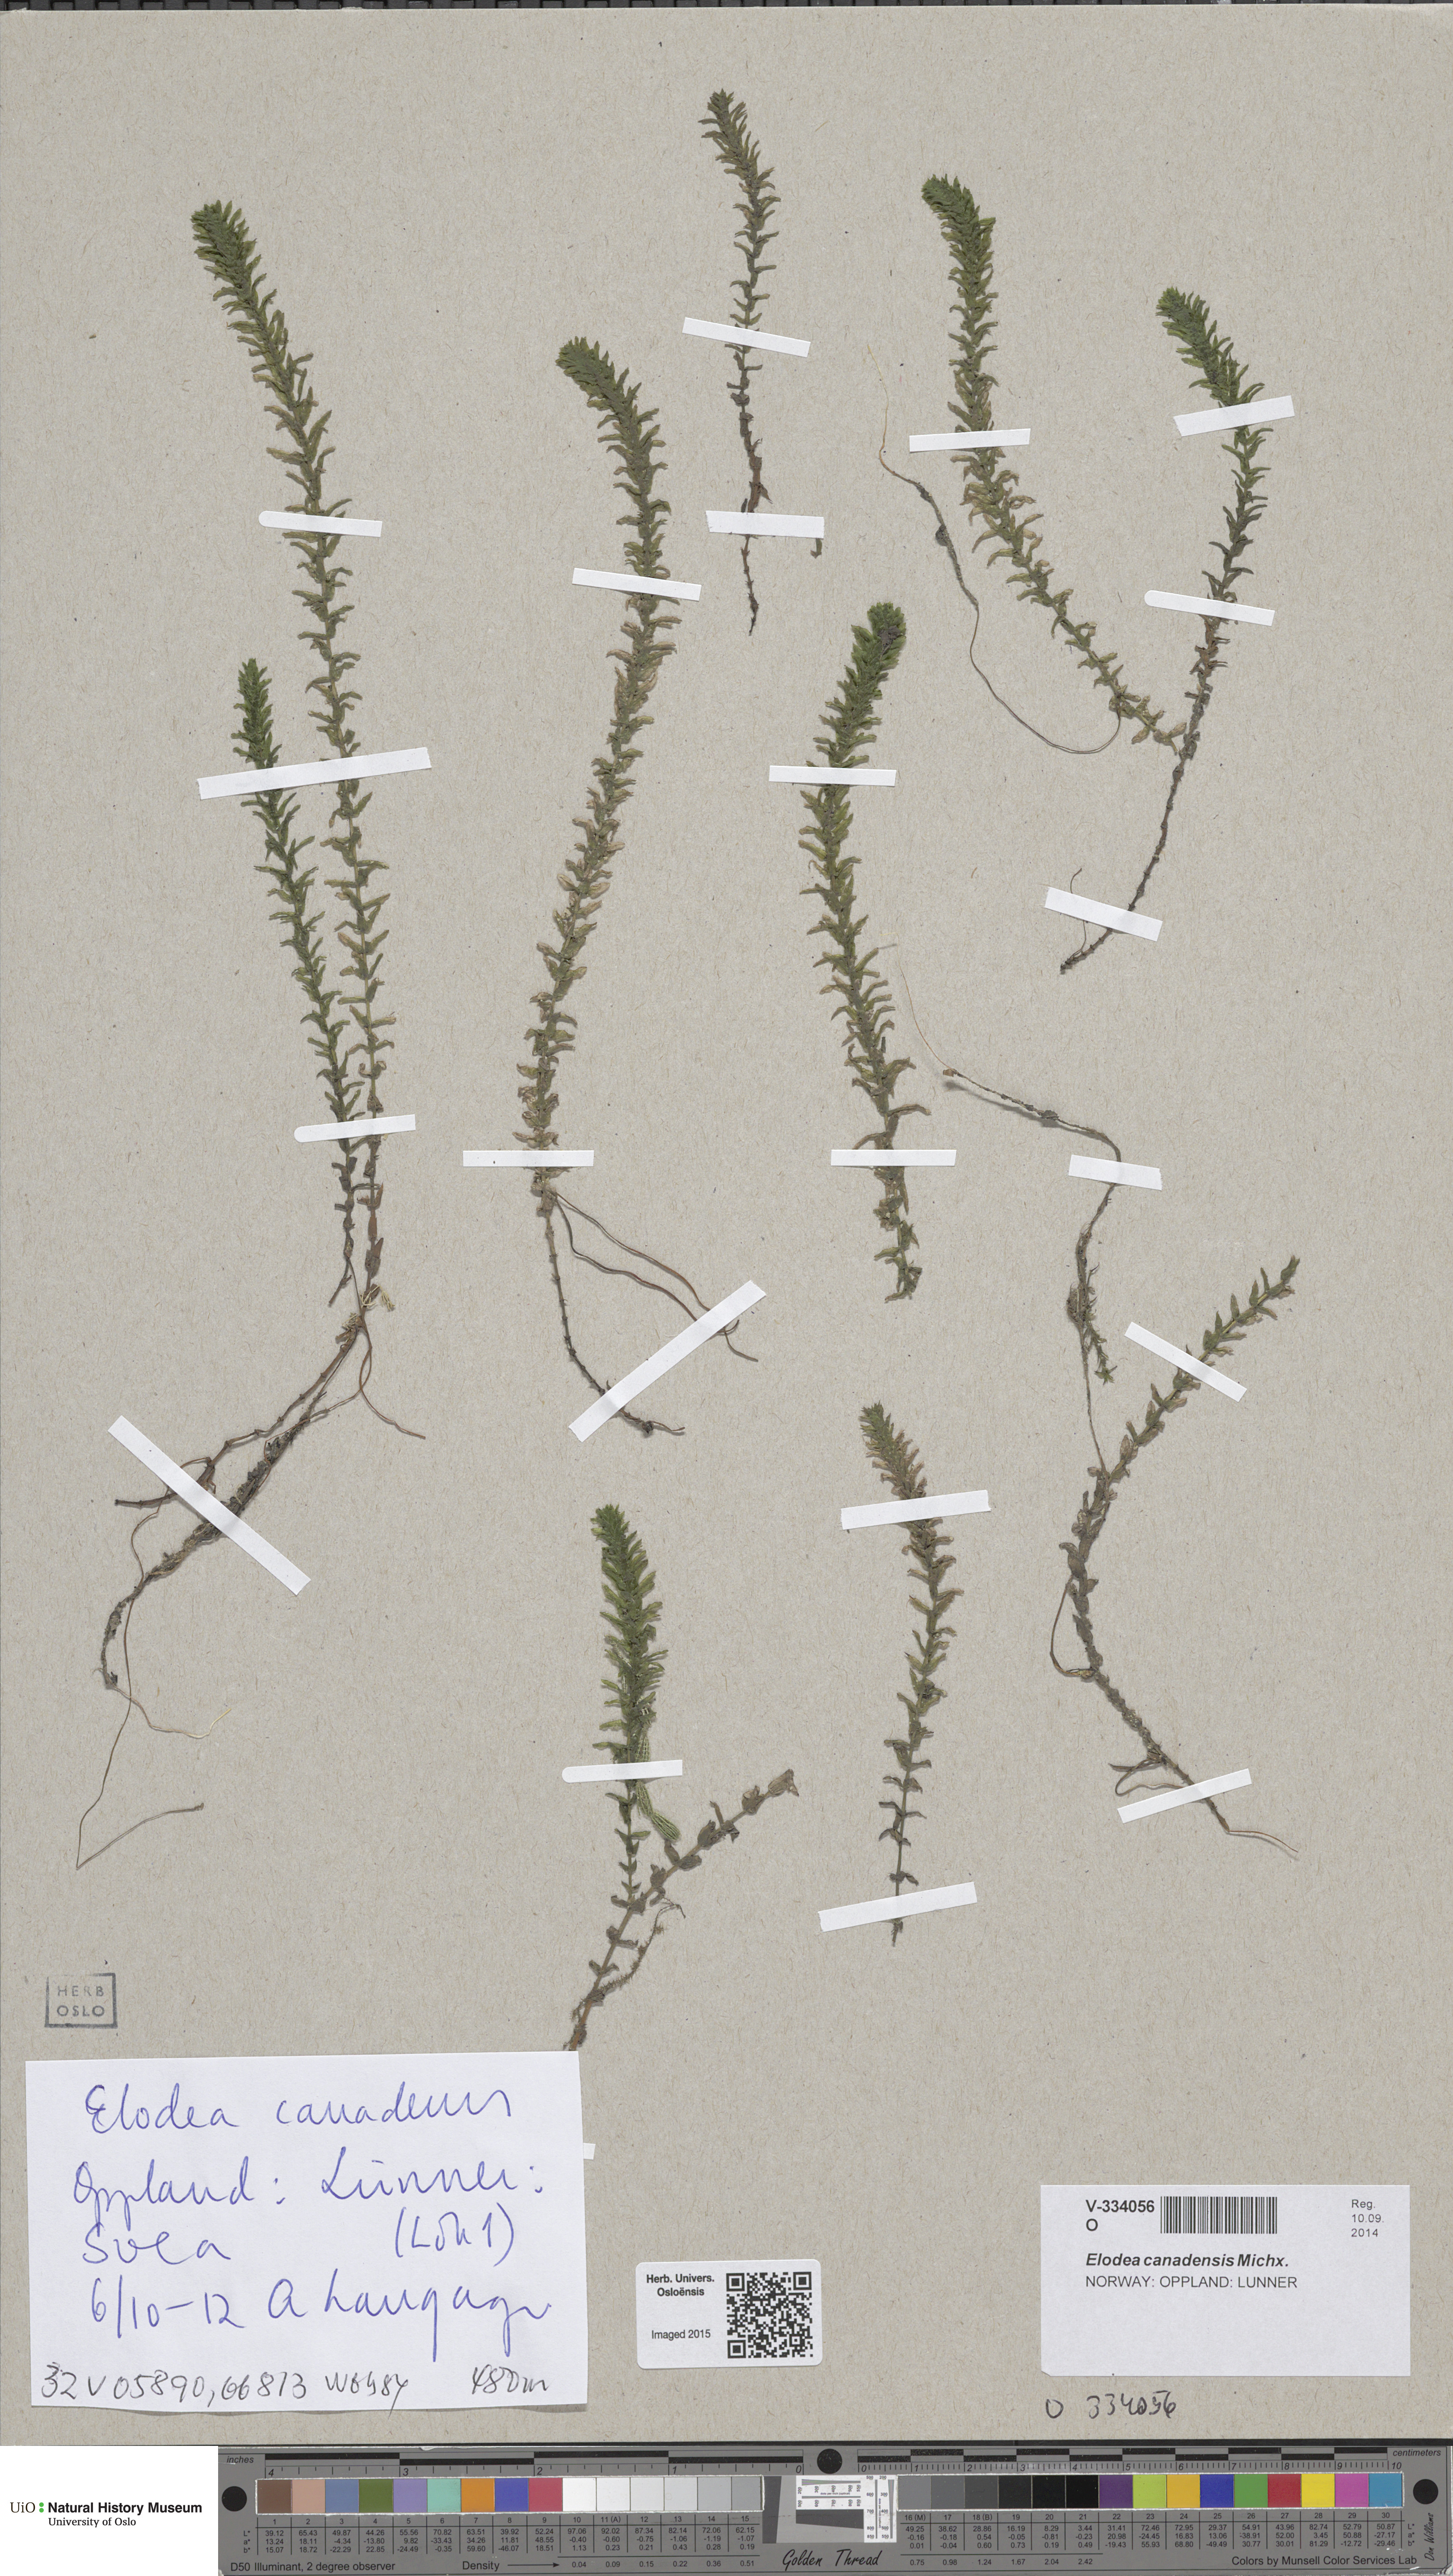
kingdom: Plantae
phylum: Tracheophyta
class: Liliopsida
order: Alismatales
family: Hydrocharitaceae
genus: Elodea
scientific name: Elodea canadensis
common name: Canadian waterweed
